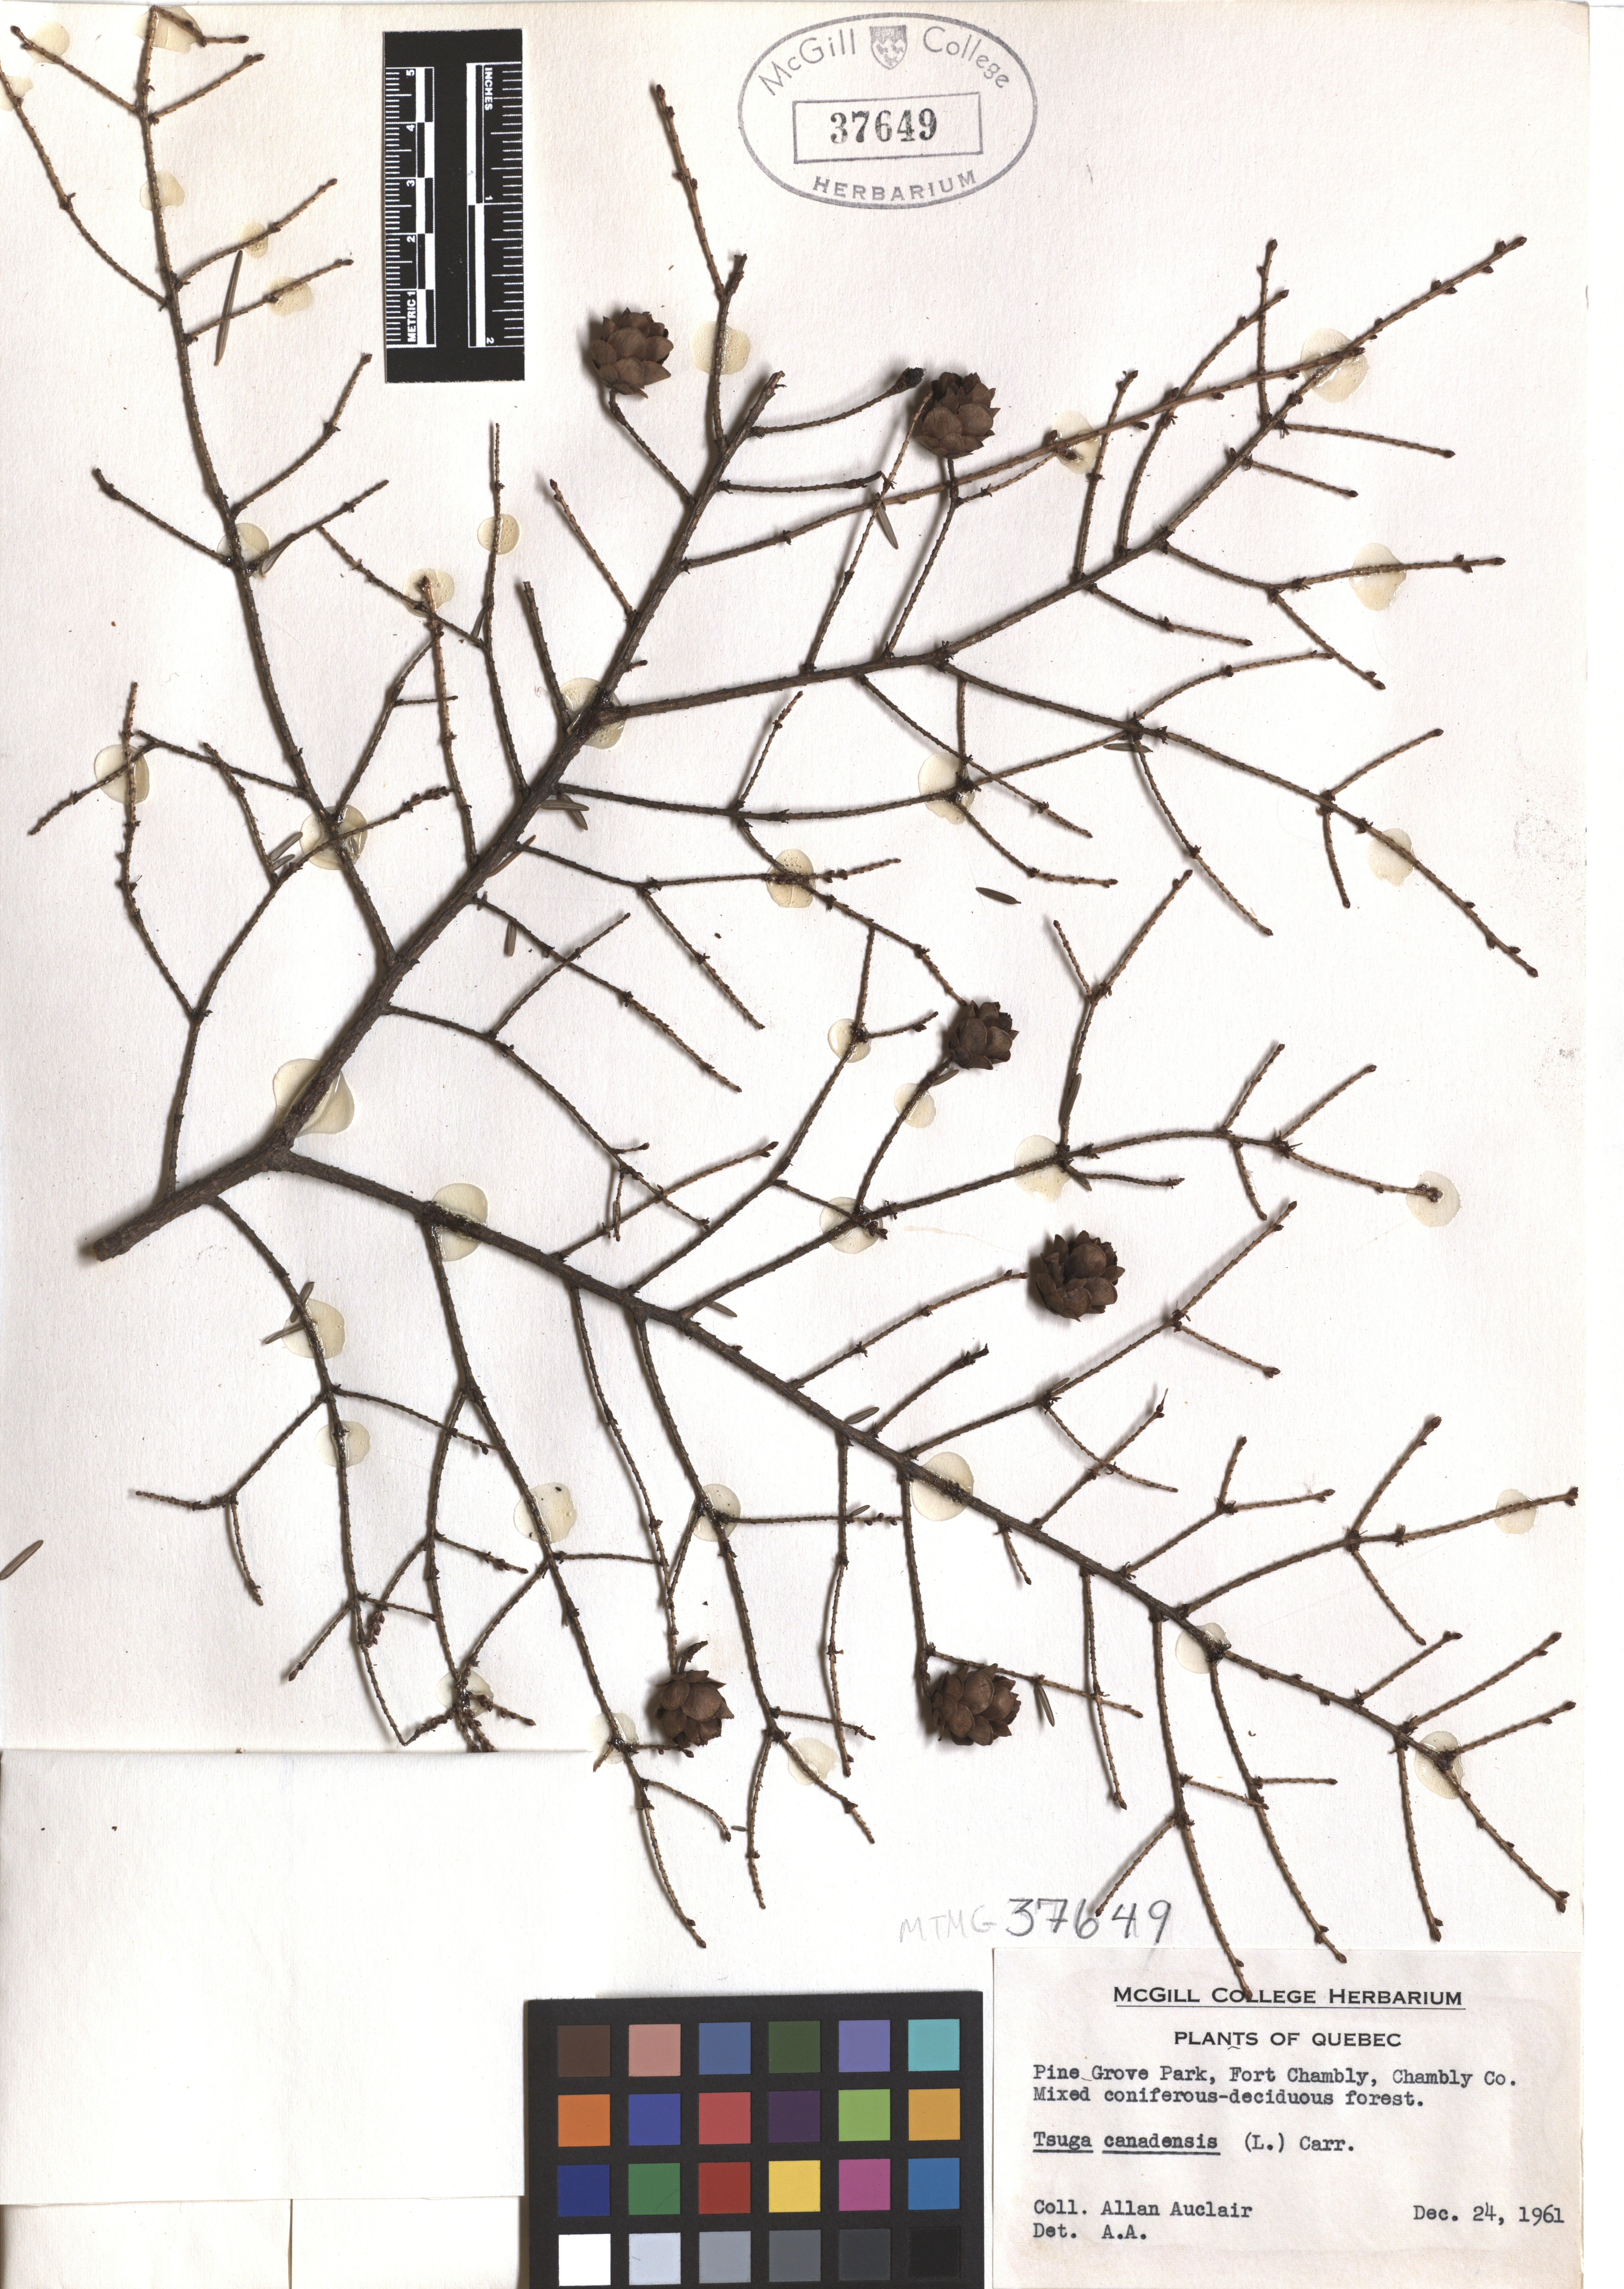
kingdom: Plantae
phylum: Tracheophyta
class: Pinopsida
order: Pinales
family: Pinaceae
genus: Tsuga
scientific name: Tsuga canadensis
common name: Eastern hemlock
